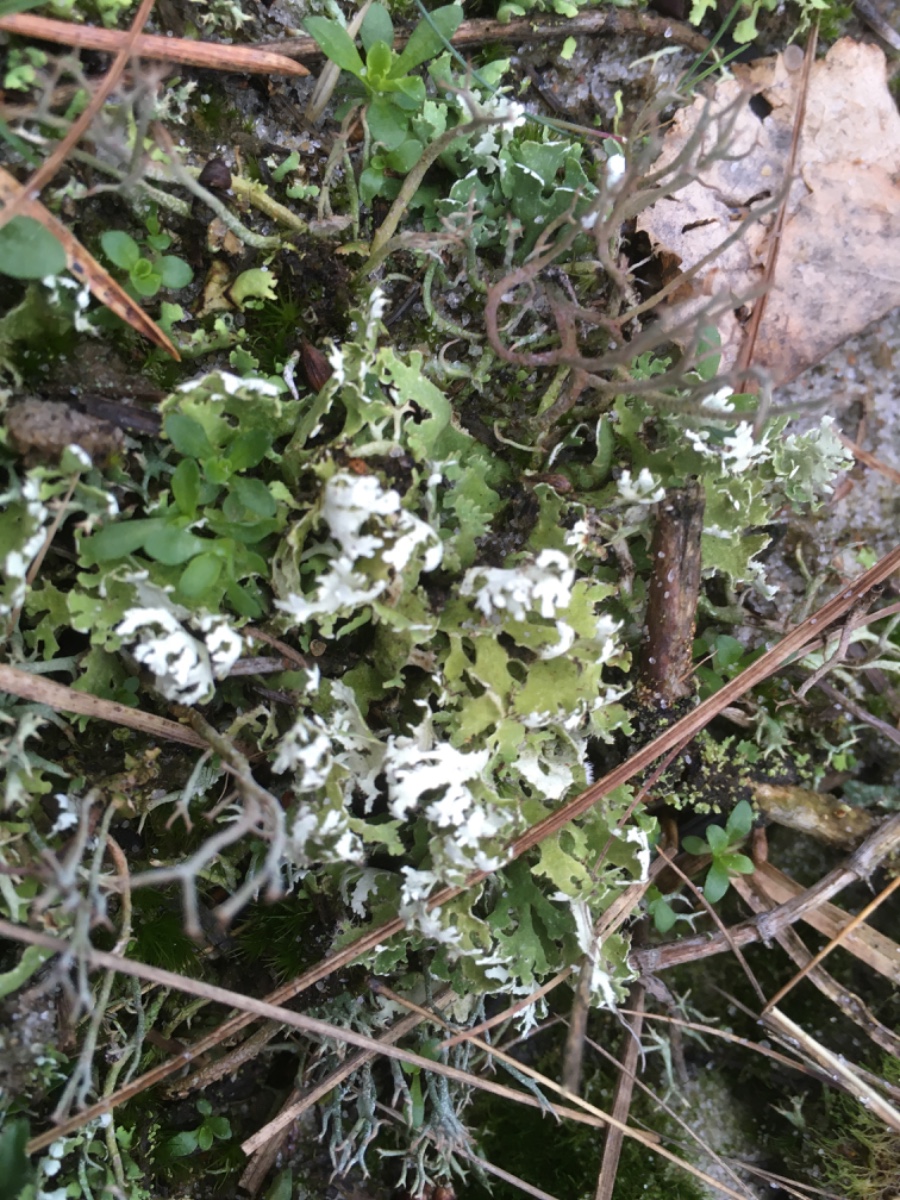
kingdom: Fungi
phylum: Ascomycota
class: Lecanoromycetes
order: Lecanorales
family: Cladoniaceae
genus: Cladonia
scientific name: Cladonia foliacea
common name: fliget bægerlav
